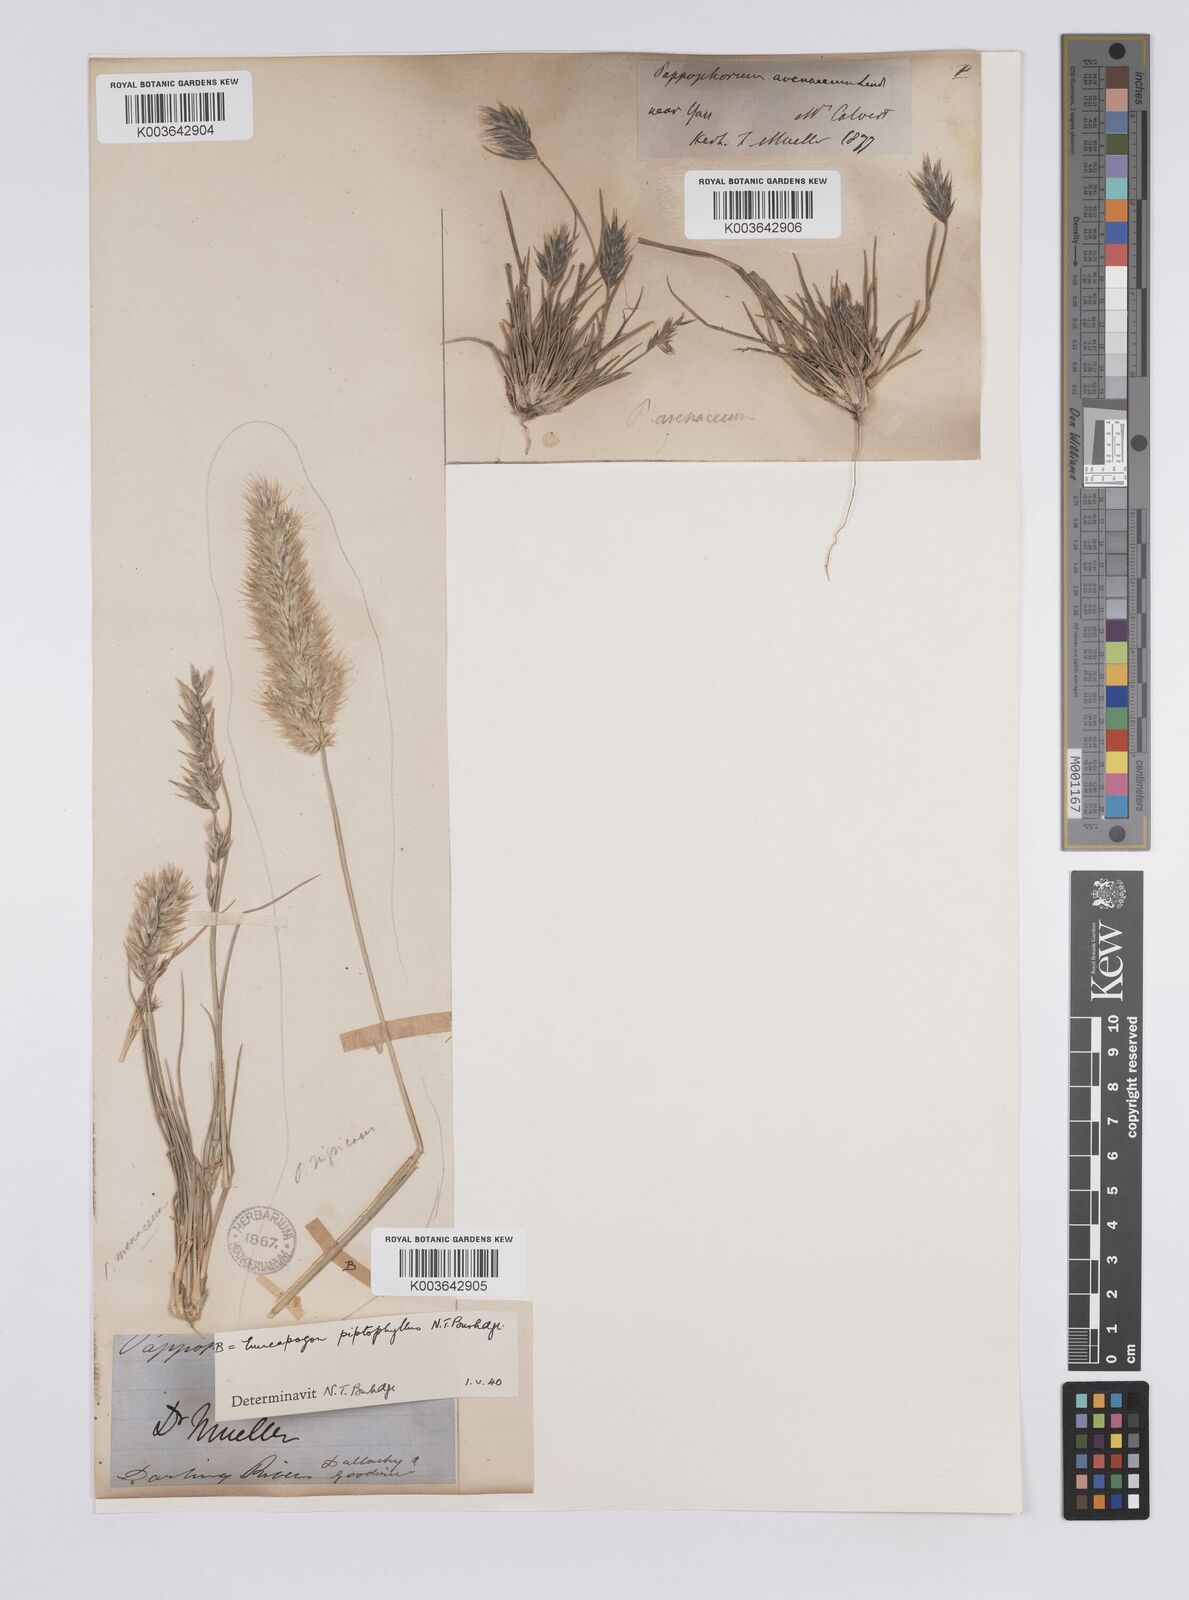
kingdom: Plantae
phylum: Tracheophyta
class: Liliopsida
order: Poales
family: Poaceae
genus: Enneapogon
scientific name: Enneapogon avenaceus
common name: Hairy oat grass
